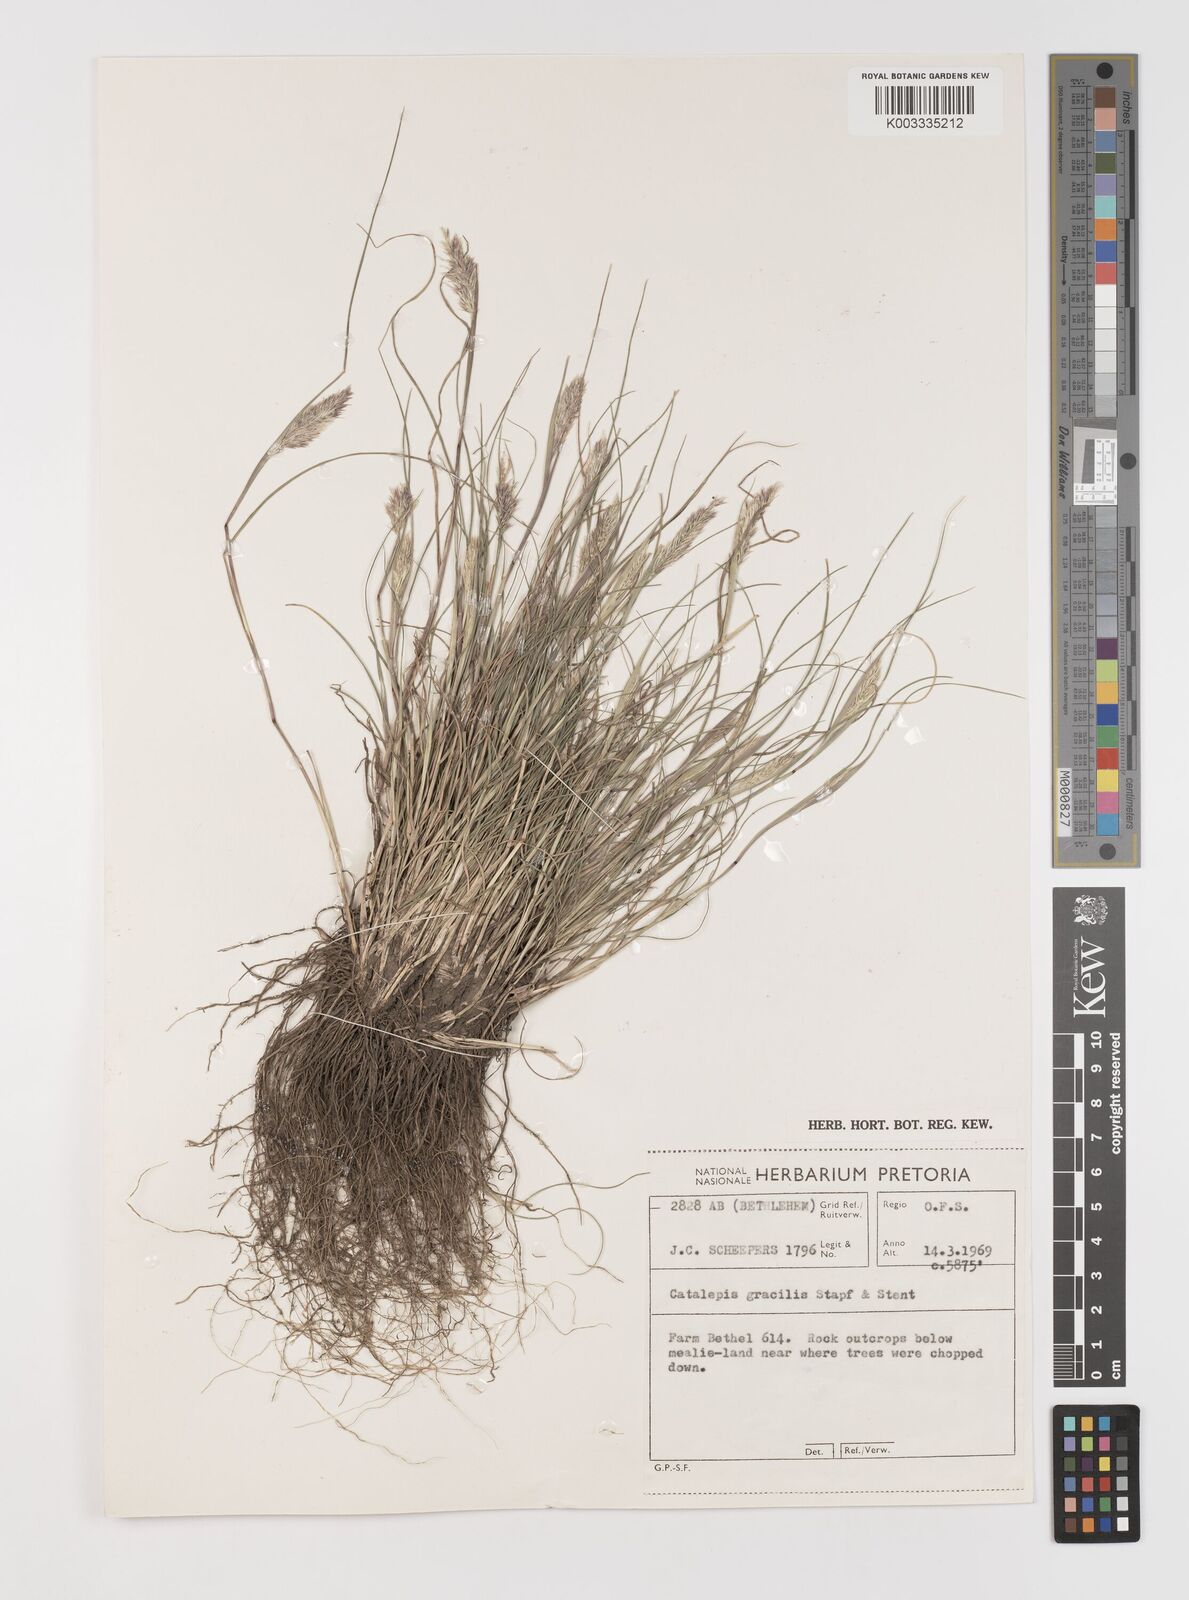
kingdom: Plantae
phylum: Tracheophyta
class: Liliopsida
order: Poales
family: Poaceae
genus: Catalepis
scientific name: Catalepis gracilis
